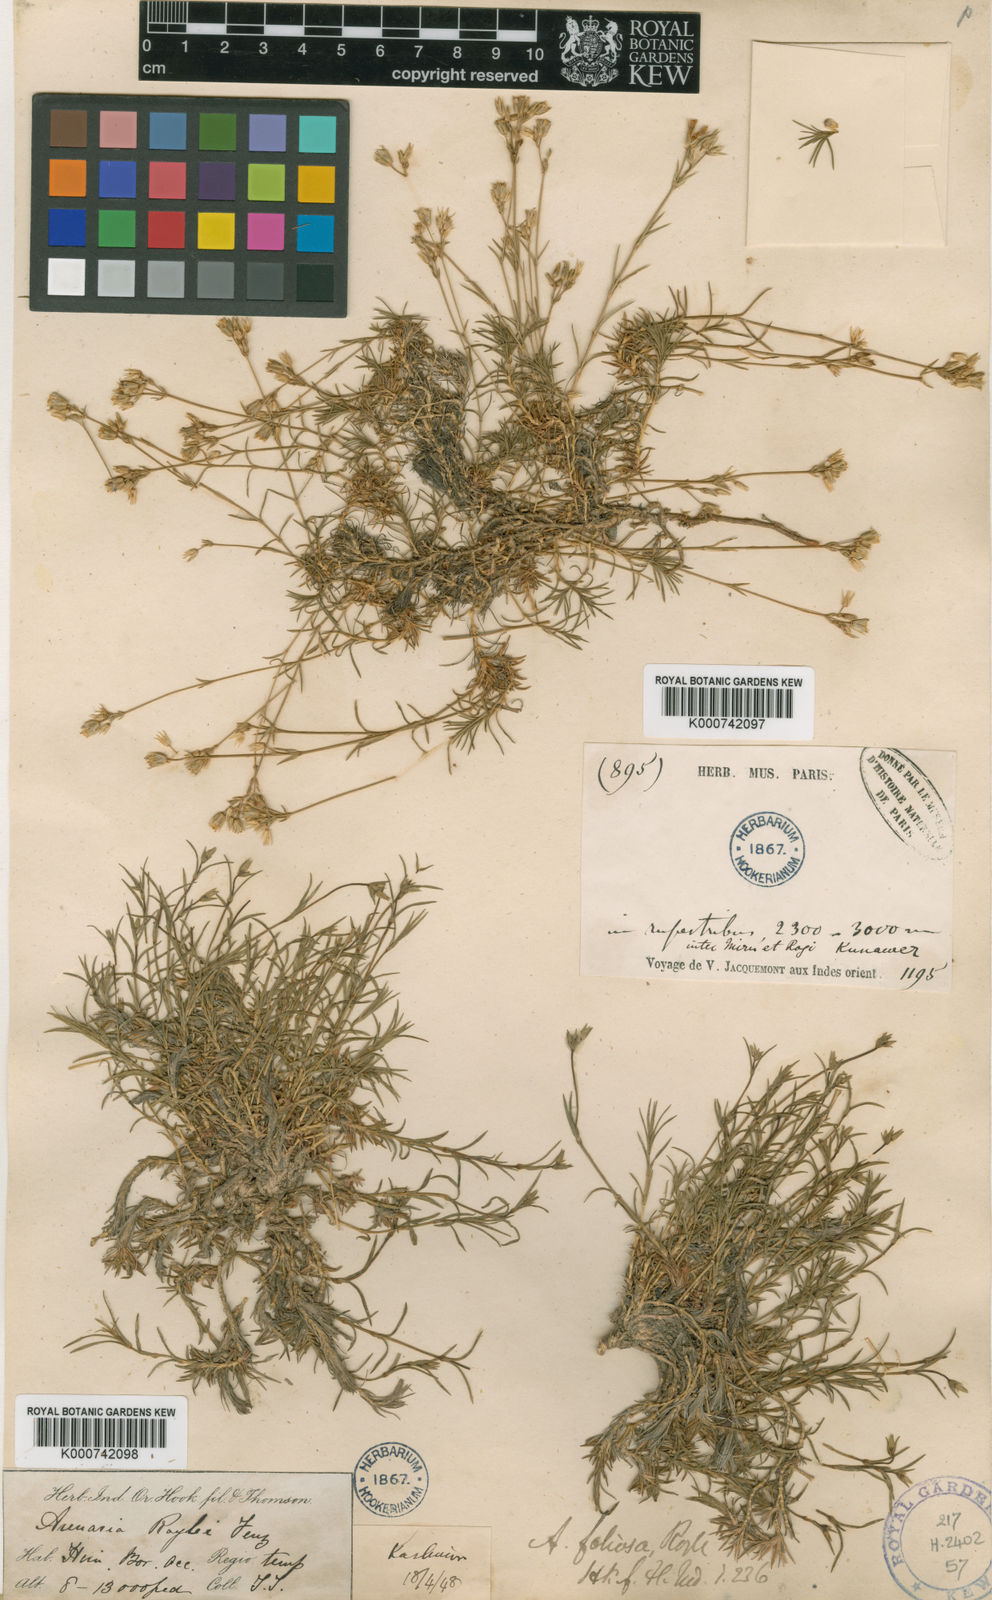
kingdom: Plantae
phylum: Tracheophyta
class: Magnoliopsida
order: Caryophyllales
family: Caryophyllaceae
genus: Sabulina
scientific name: Sabulina foliosa
